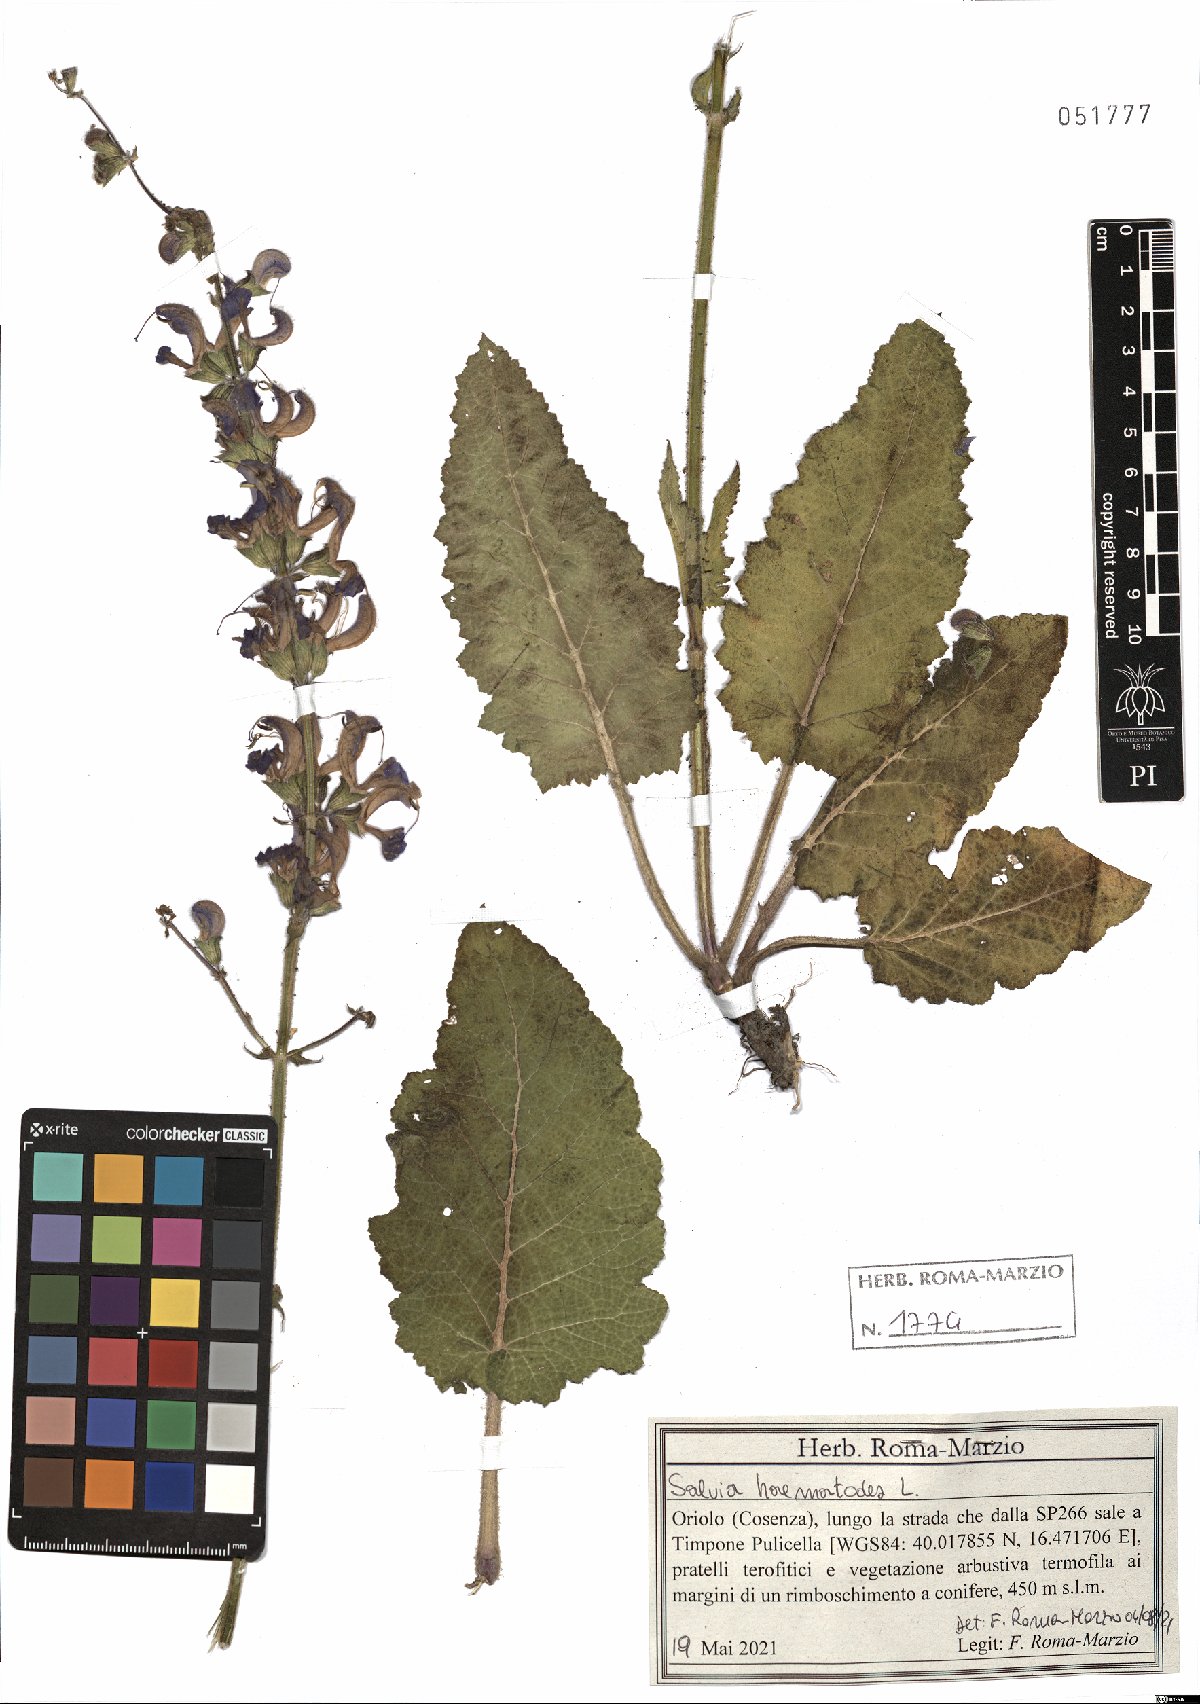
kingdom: Plantae
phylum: Tracheophyta
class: Magnoliopsida
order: Lamiales
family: Lamiaceae
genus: Salvia
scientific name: Salvia pratensis
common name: Meadow sage
